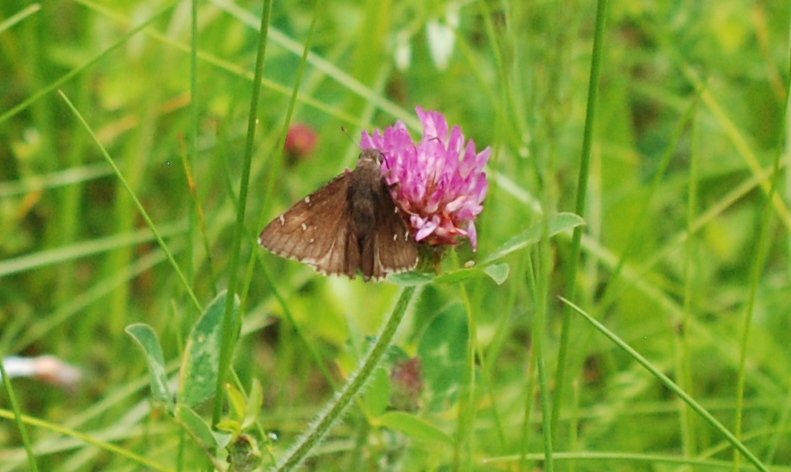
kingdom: Animalia
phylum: Arthropoda
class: Insecta
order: Lepidoptera
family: Hesperiidae
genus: Autochton
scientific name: Autochton
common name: Northern Cloudywing
